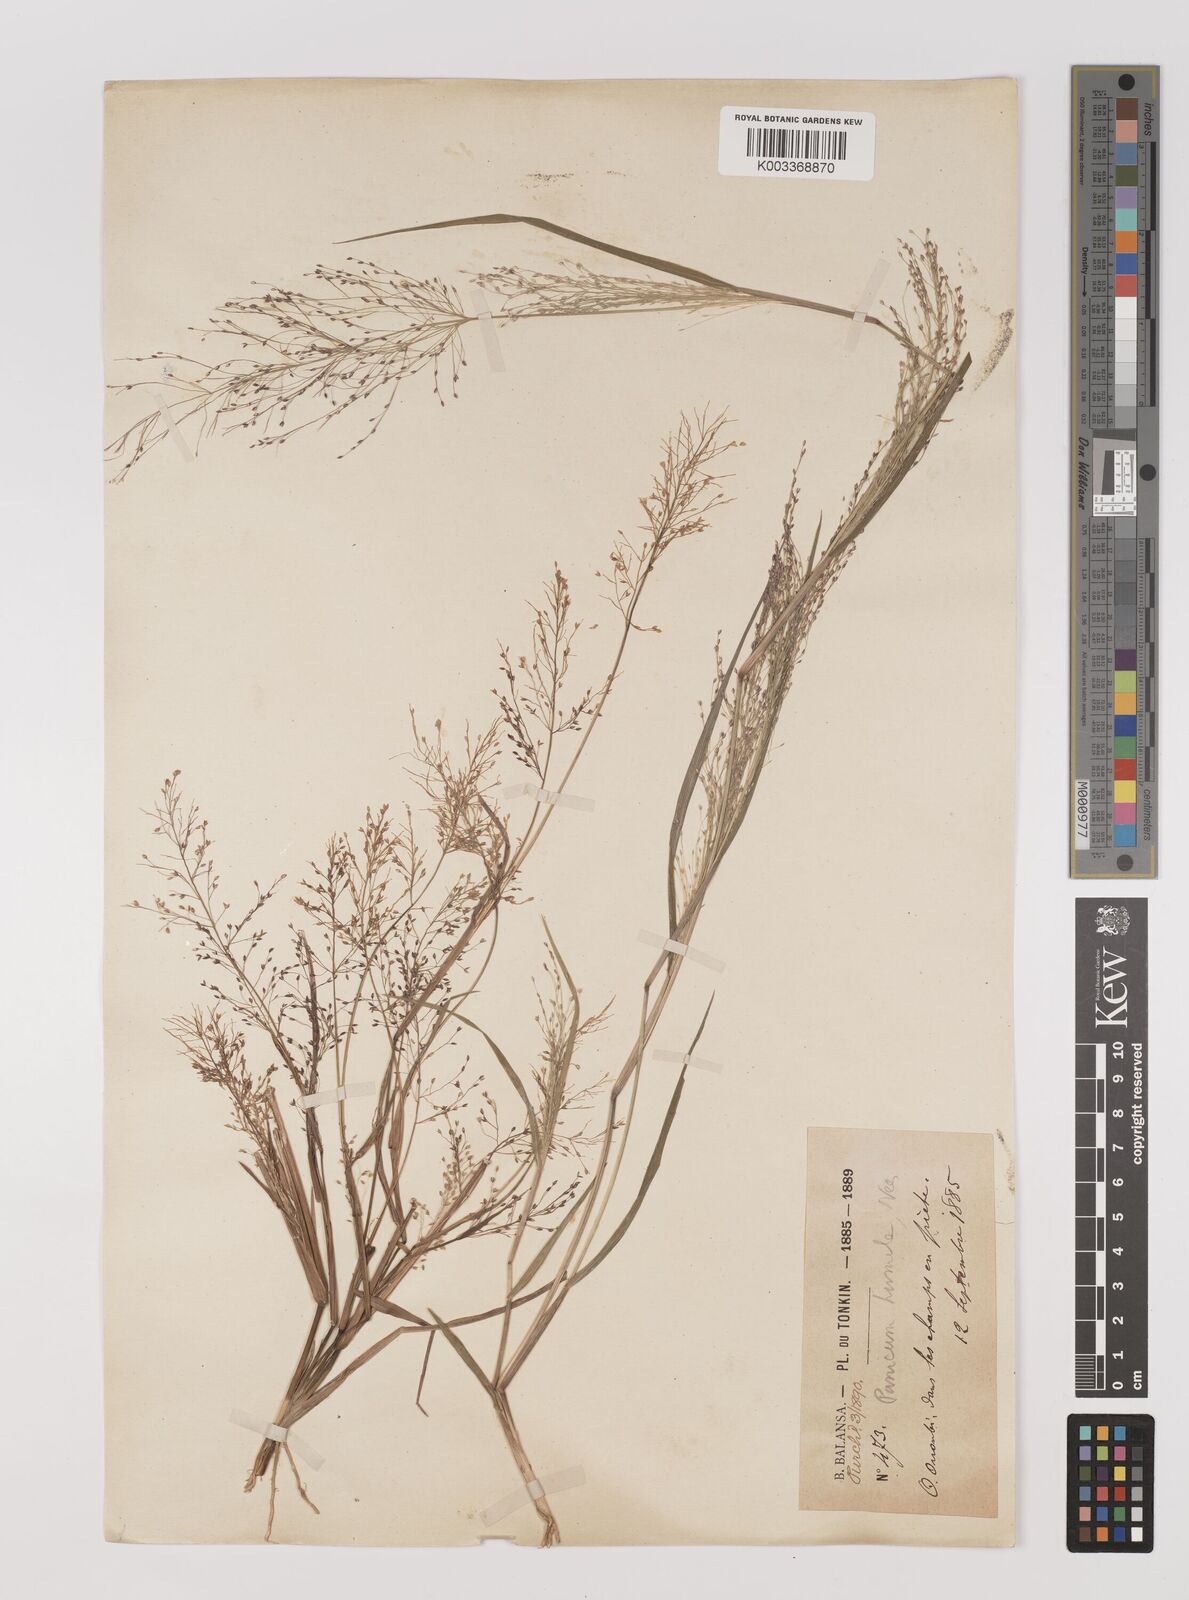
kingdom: Plantae
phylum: Tracheophyta
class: Liliopsida
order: Poales
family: Poaceae
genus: Panicum
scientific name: Panicum humile
